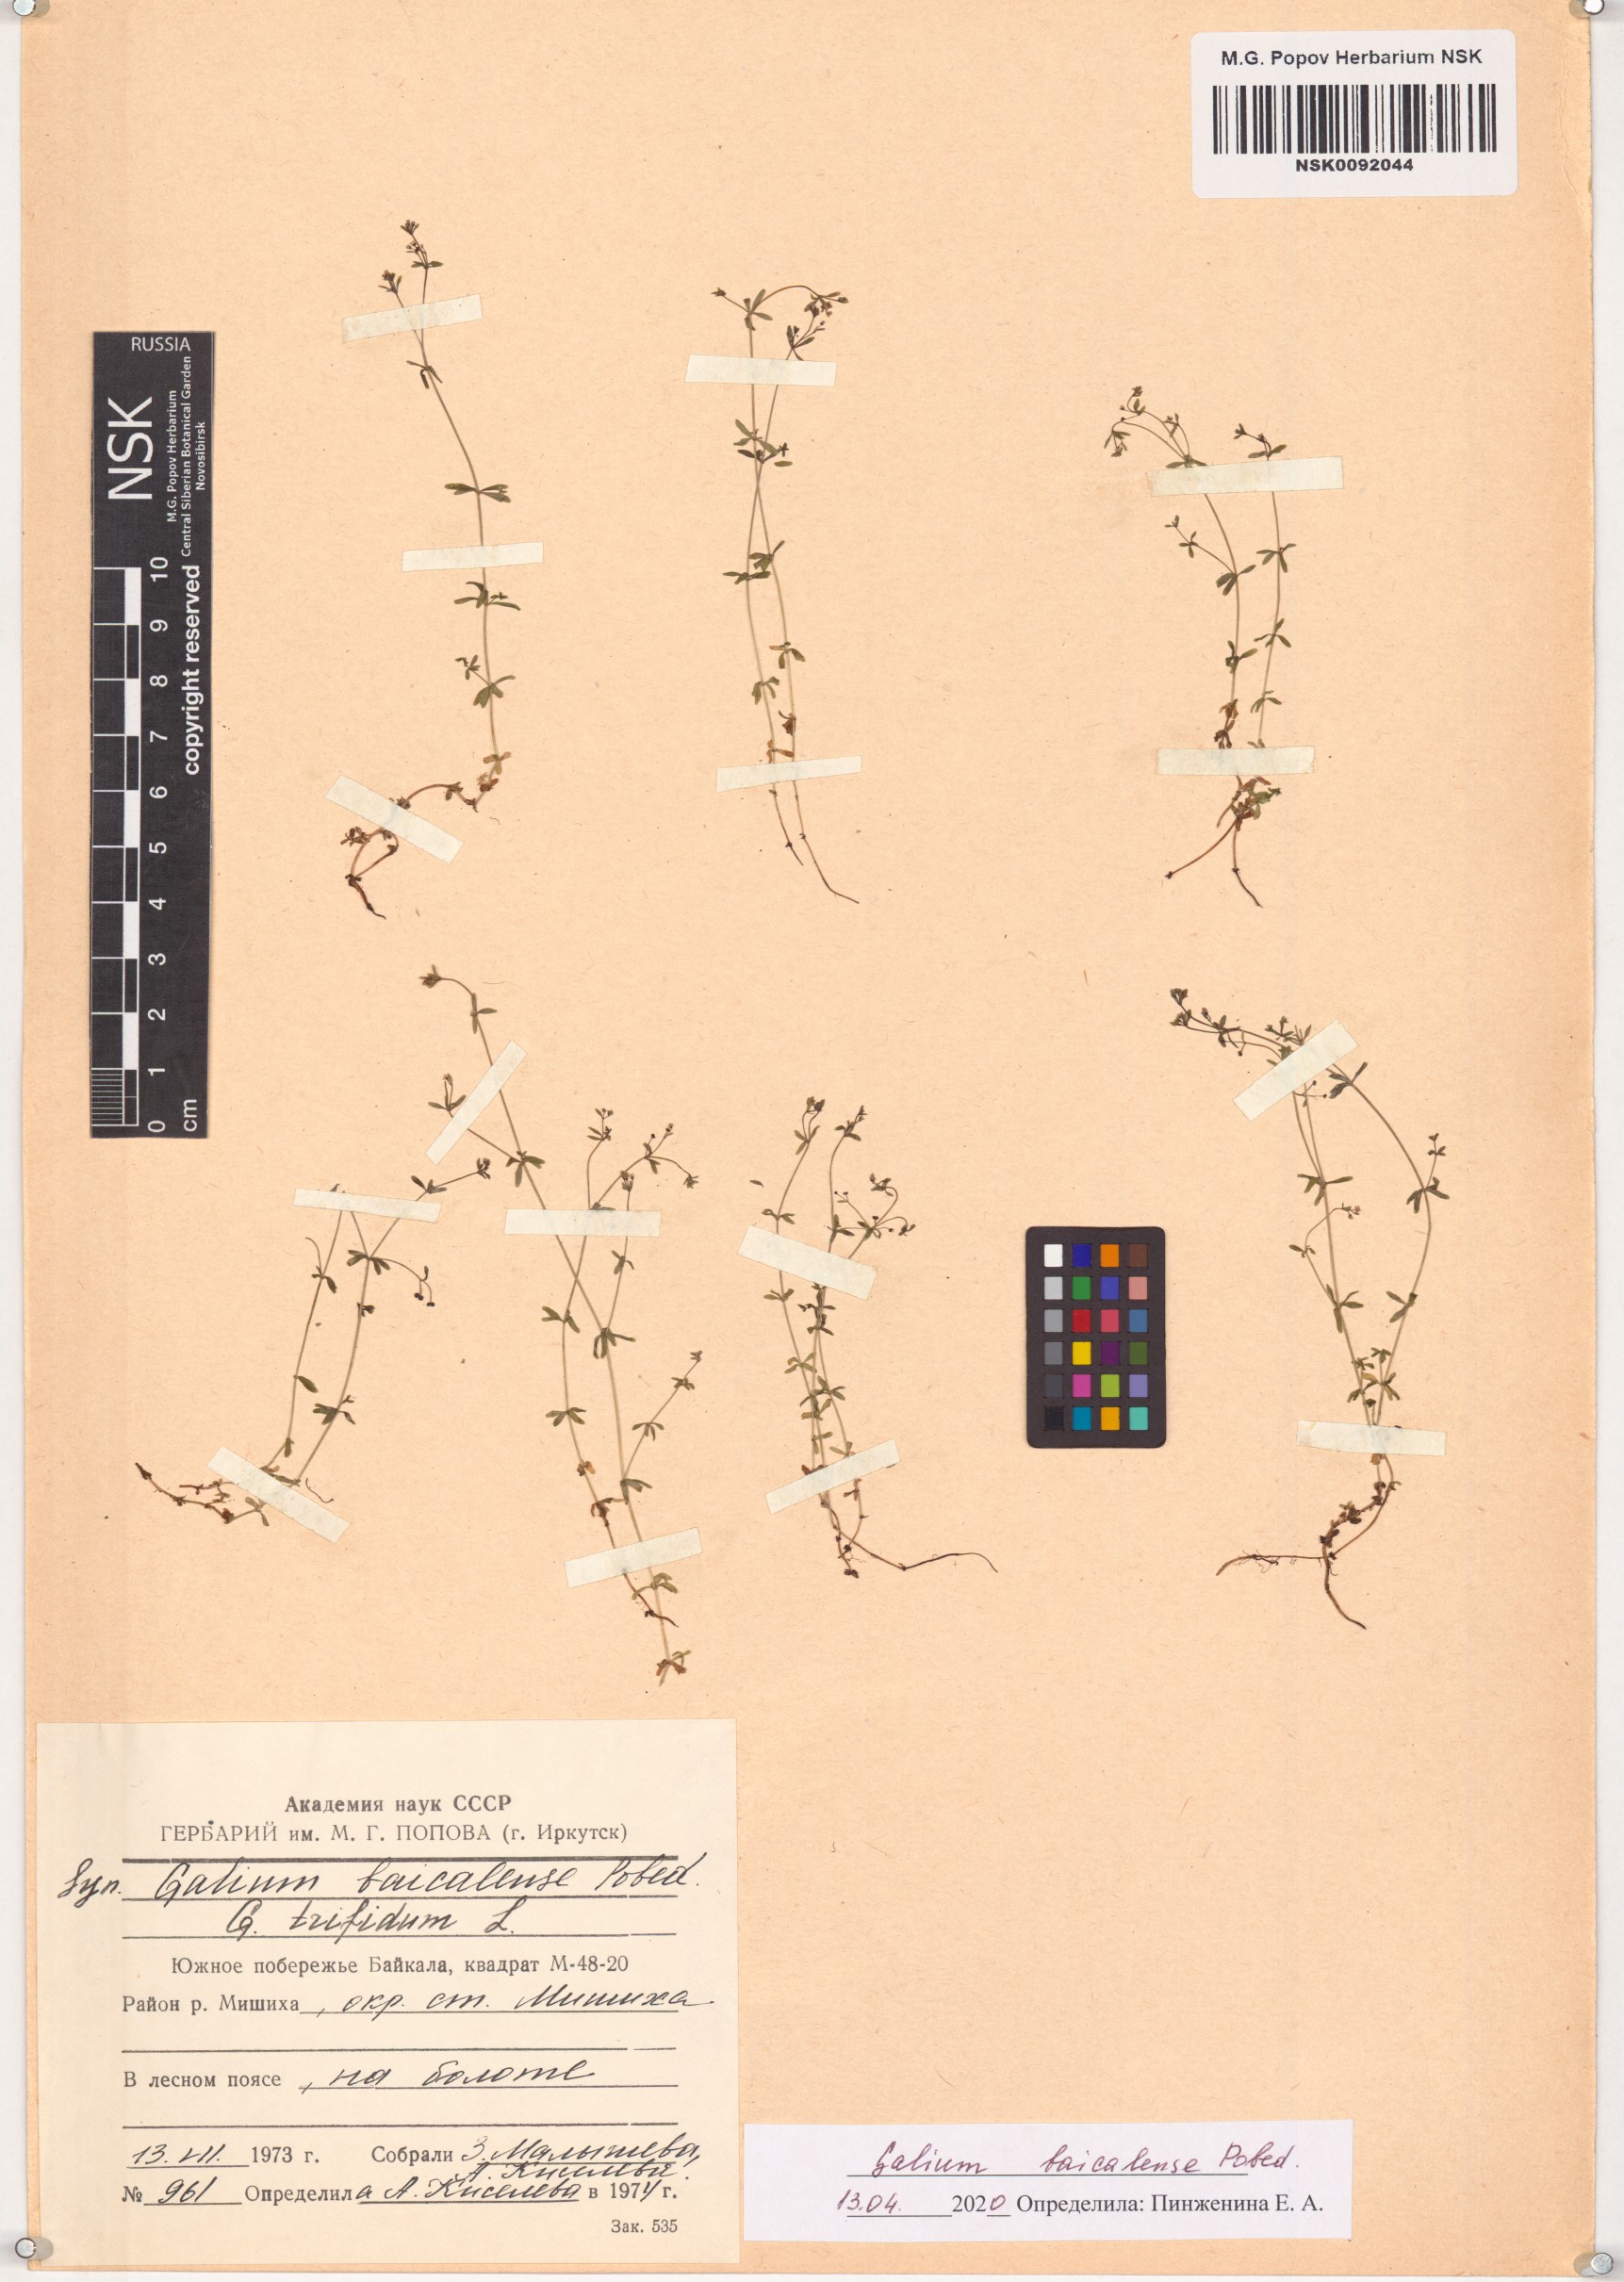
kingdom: Plantae
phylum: Tracheophyta
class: Magnoliopsida
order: Gentianales
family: Rubiaceae
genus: Galium
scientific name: Galium trifidum
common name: Small bedstraw
